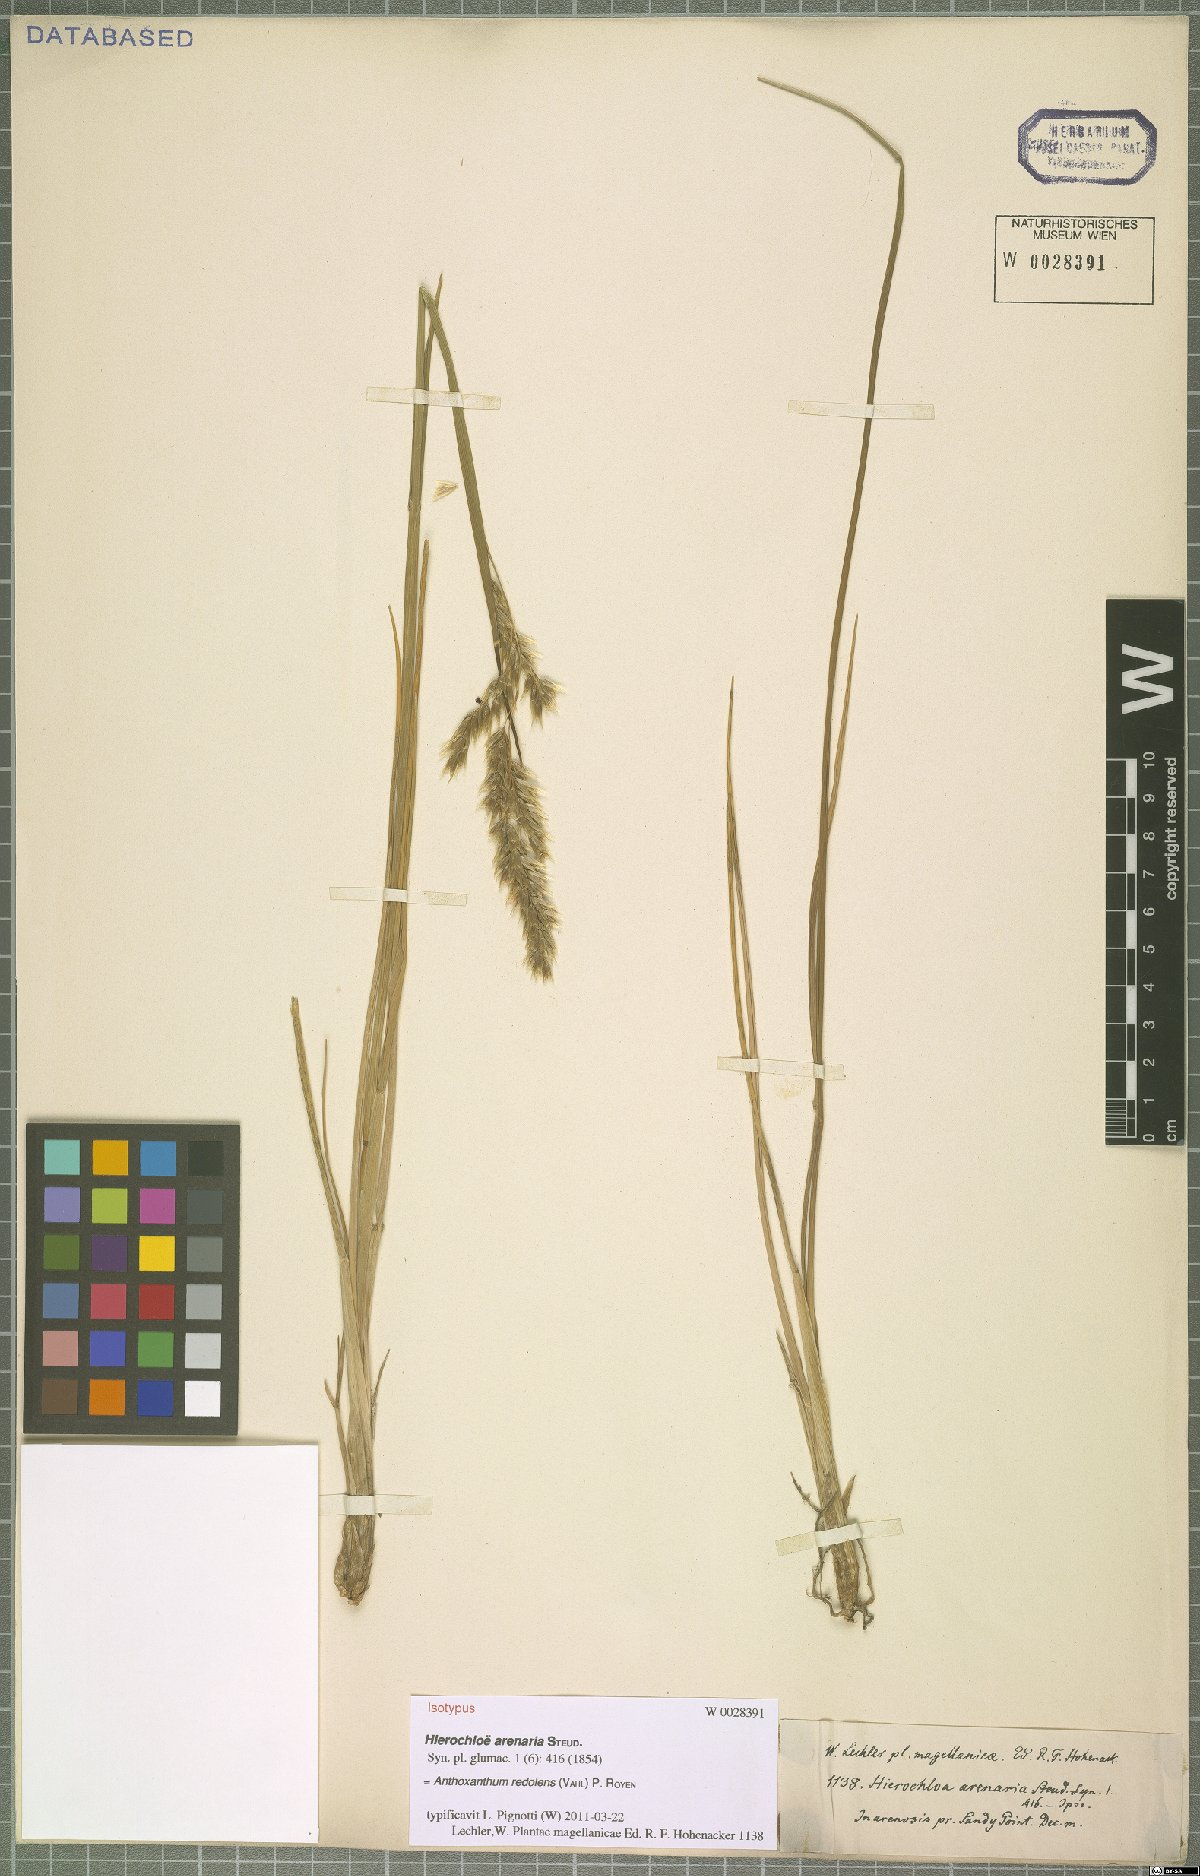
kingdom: Plantae
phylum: Tracheophyta
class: Liliopsida
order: Poales
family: Poaceae
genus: Anthoxanthum
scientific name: Anthoxanthum redolens
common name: Sweet holy grass
